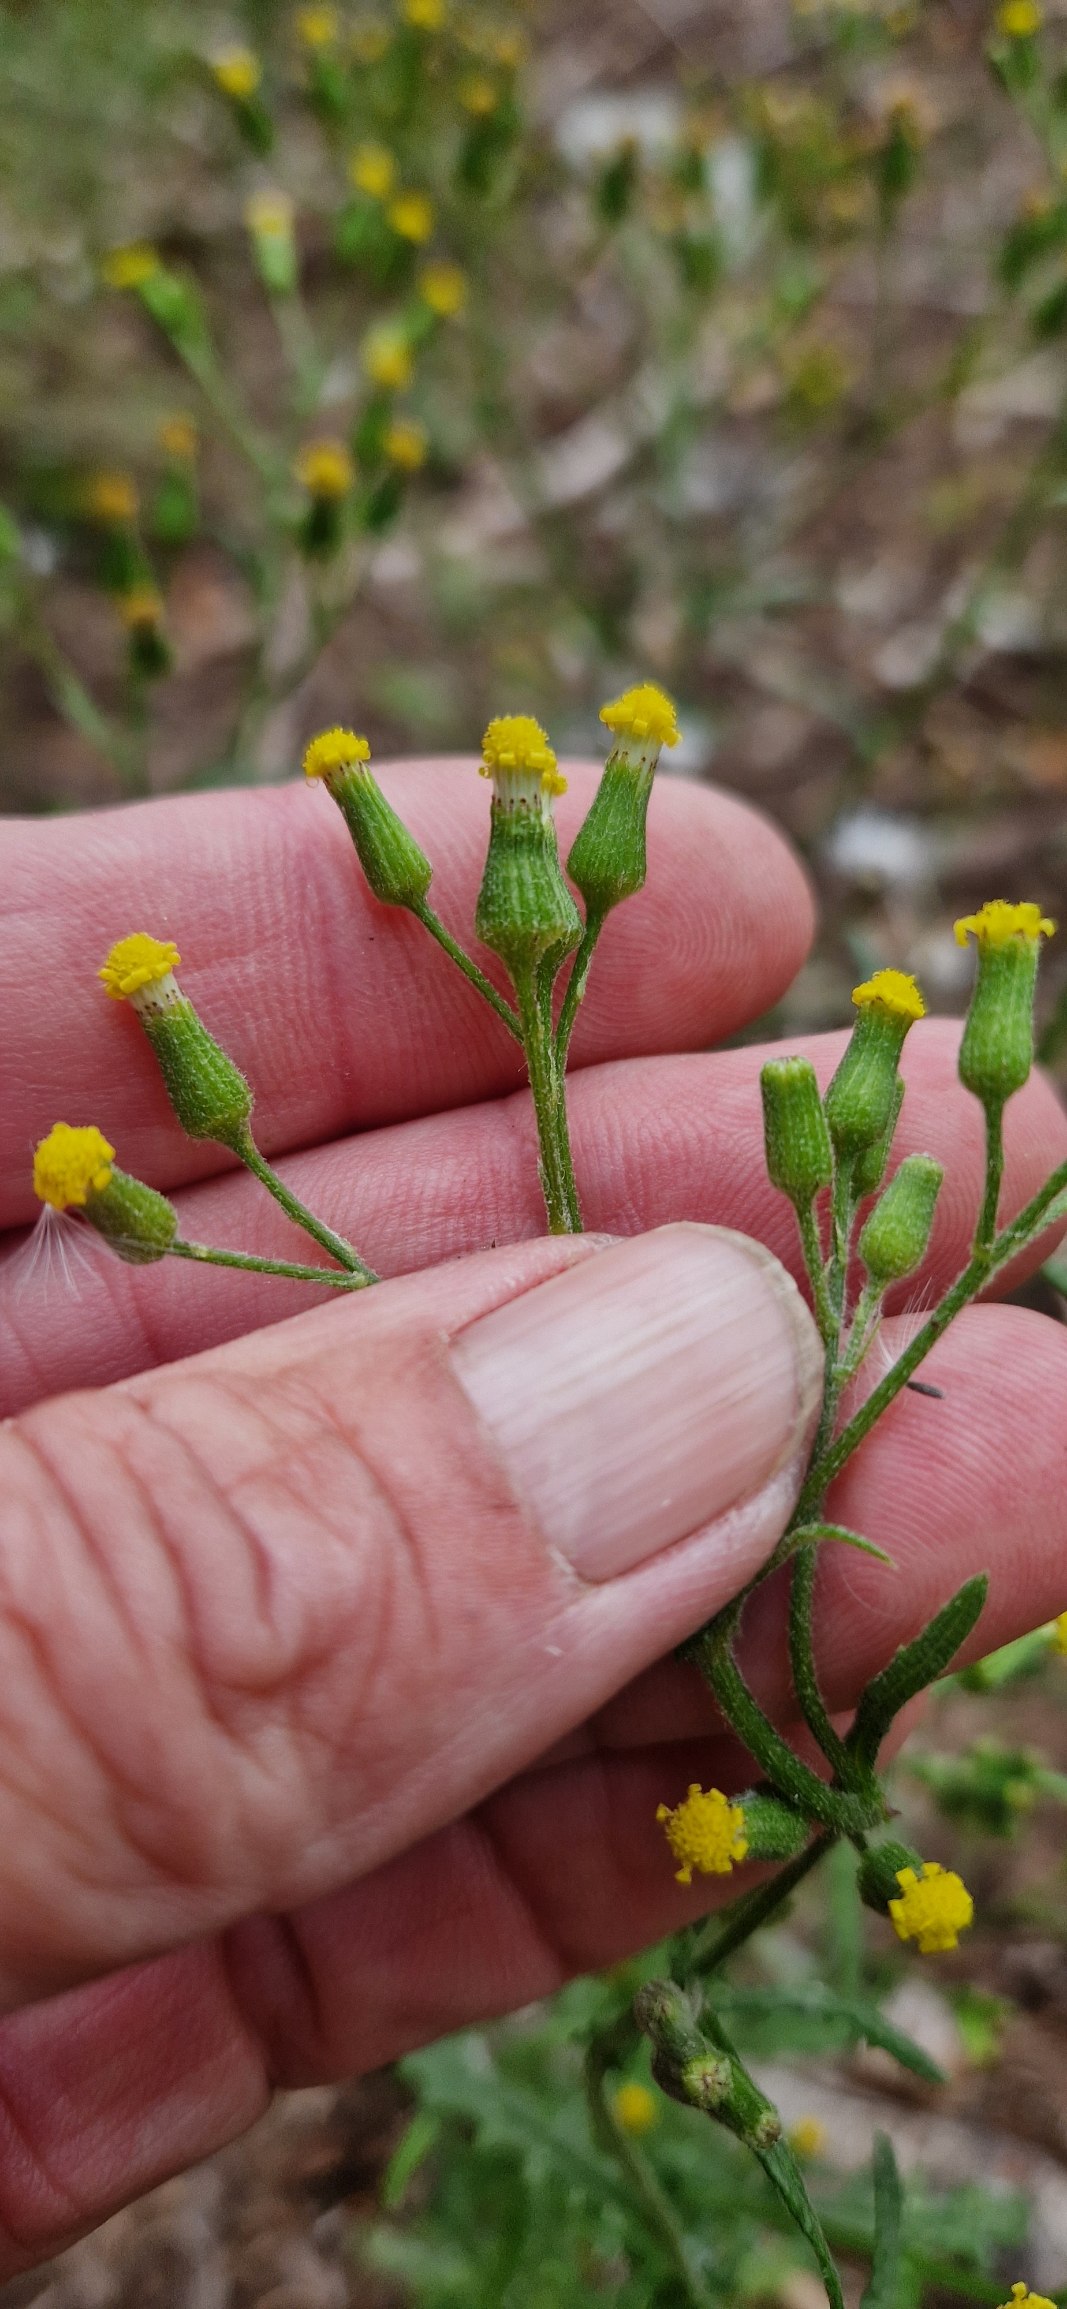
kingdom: Plantae
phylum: Tracheophyta
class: Magnoliopsida
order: Asterales
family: Asteraceae
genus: Senecio
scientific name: Senecio sylvaticus
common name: Skov-brandbæger
